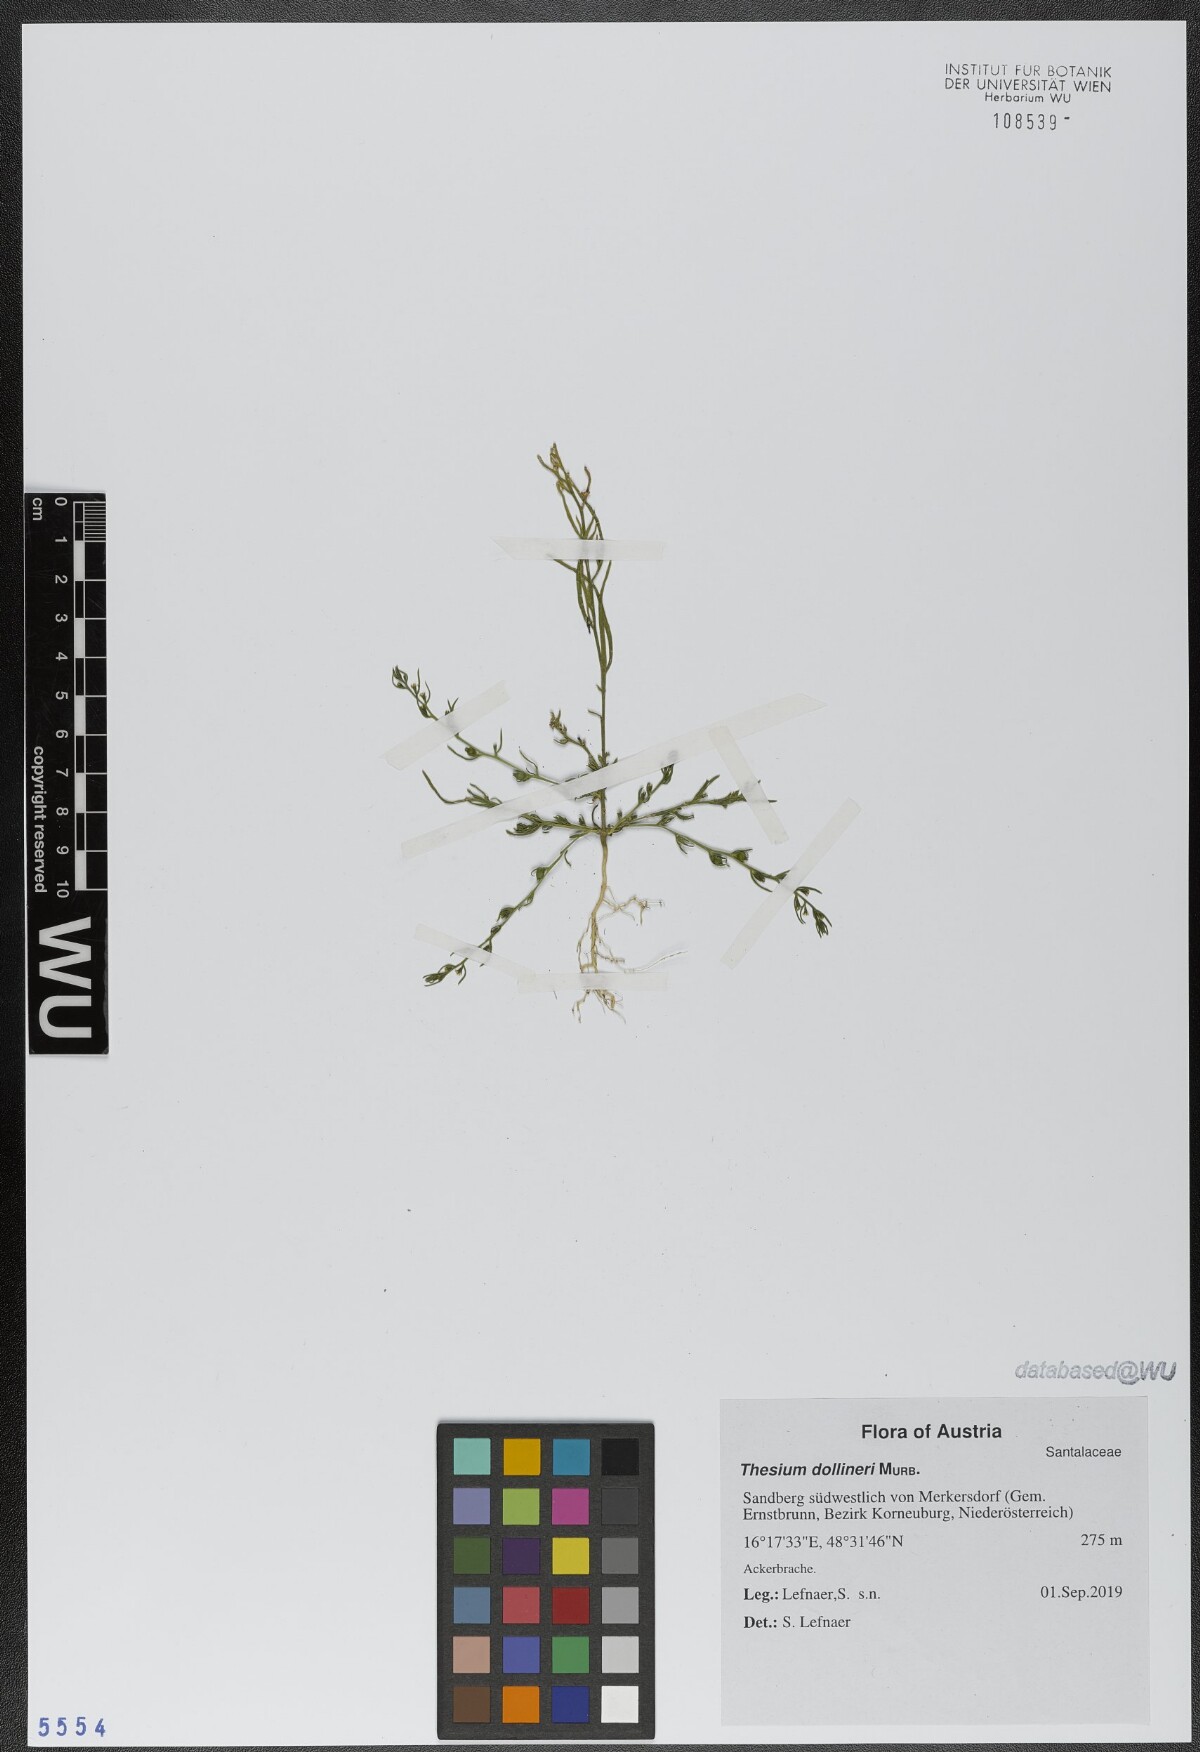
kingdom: Plantae
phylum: Tracheophyta
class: Magnoliopsida
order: Santalales
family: Thesiaceae
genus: Thesium
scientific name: Thesium dollineri
